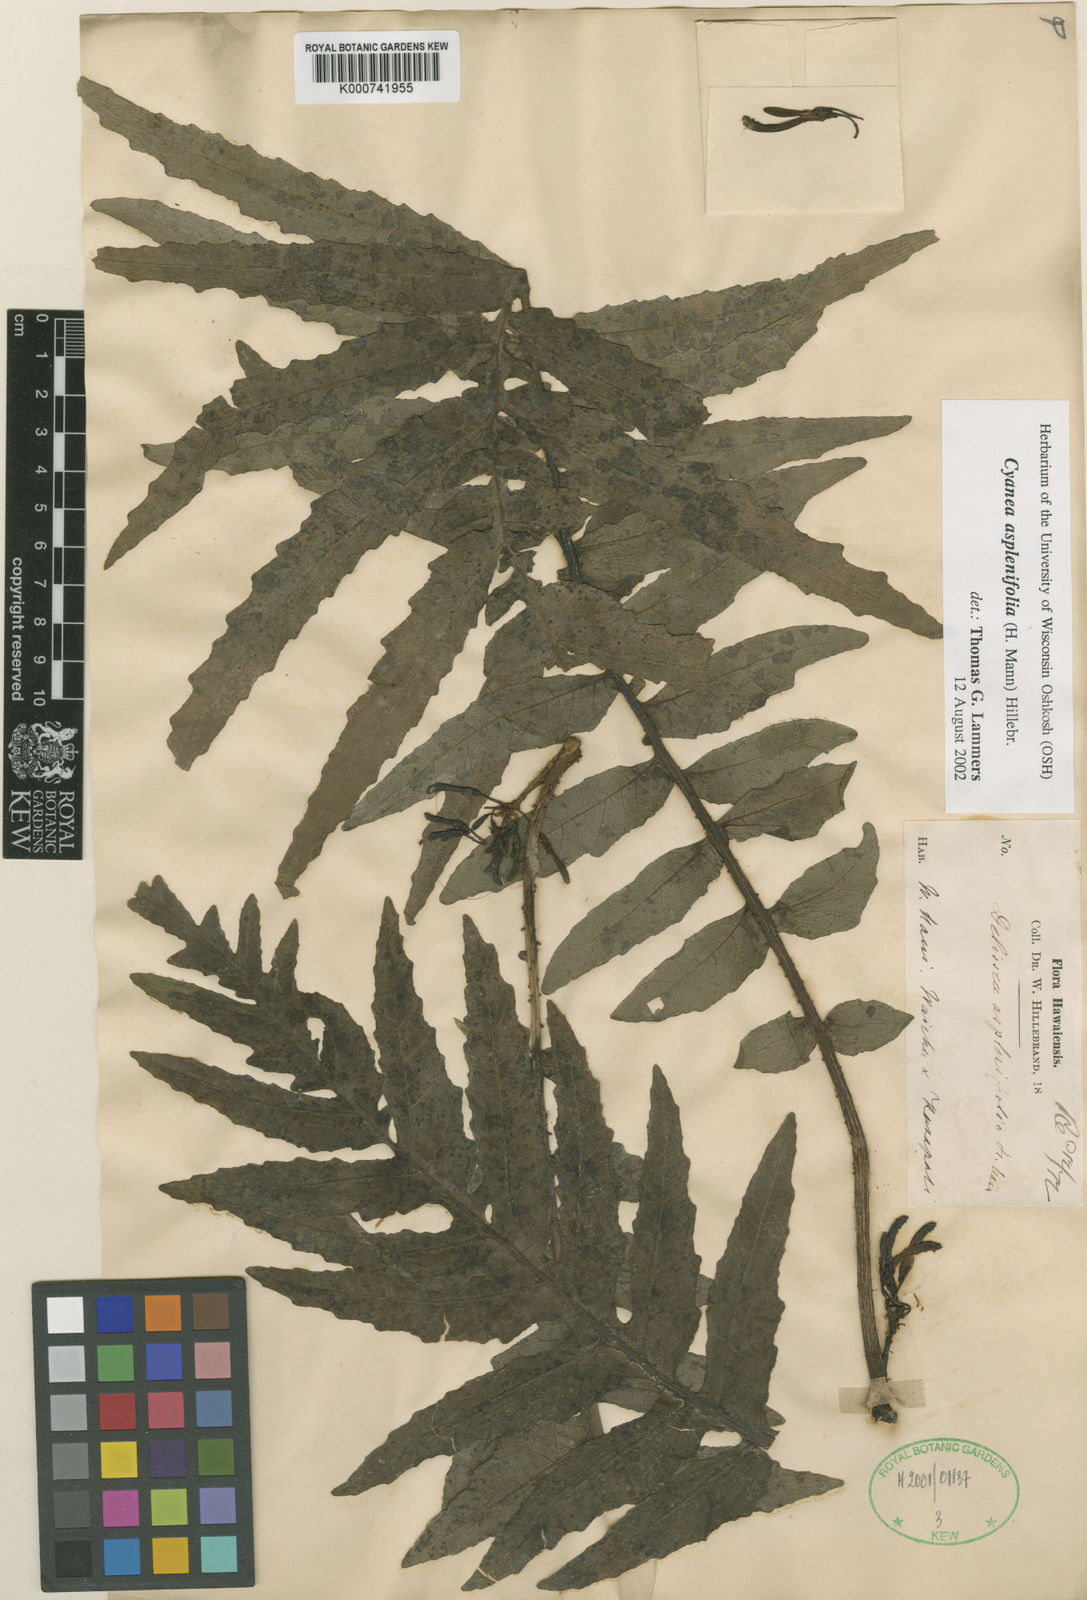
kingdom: Plantae
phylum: Tracheophyta
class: Magnoliopsida
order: Asterales
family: Campanulaceae
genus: Cyanea
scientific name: Cyanea asplenifolia
